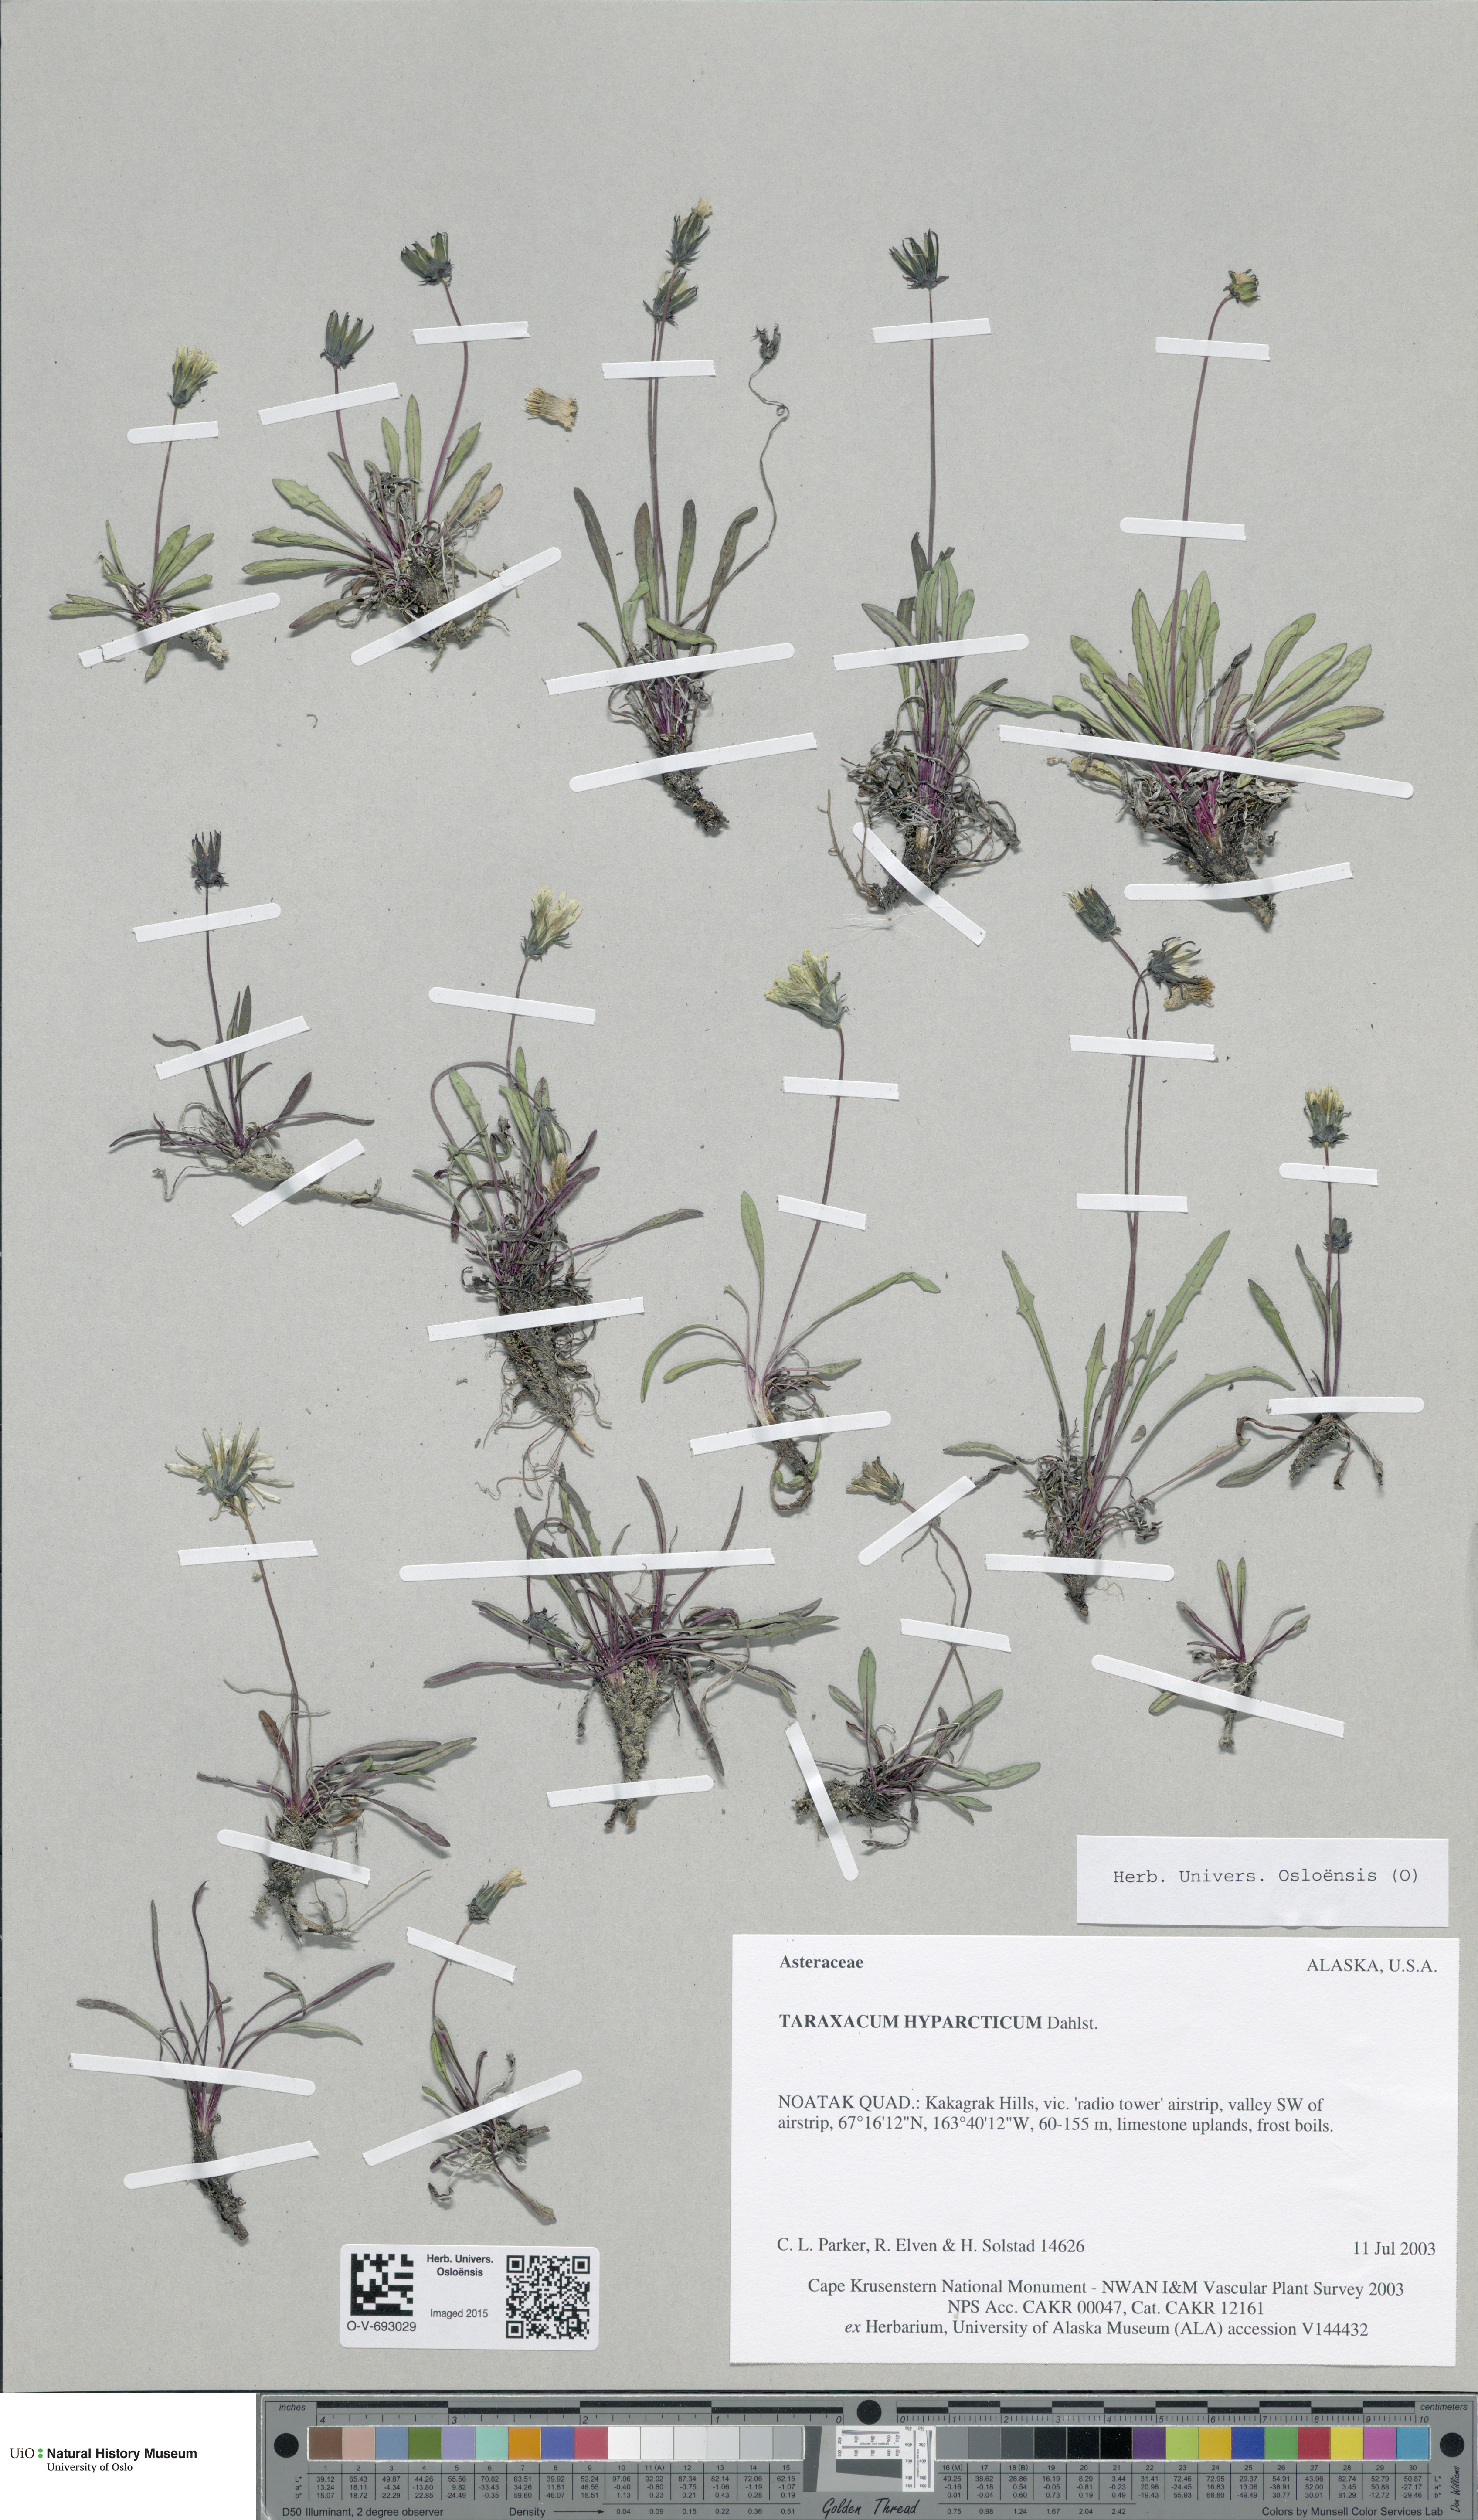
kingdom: Plantae
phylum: Tracheophyta
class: Magnoliopsida
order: Asterales
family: Asteraceae
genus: Taraxacum
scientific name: Taraxacum hyparcticum
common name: High arctic dandelion
